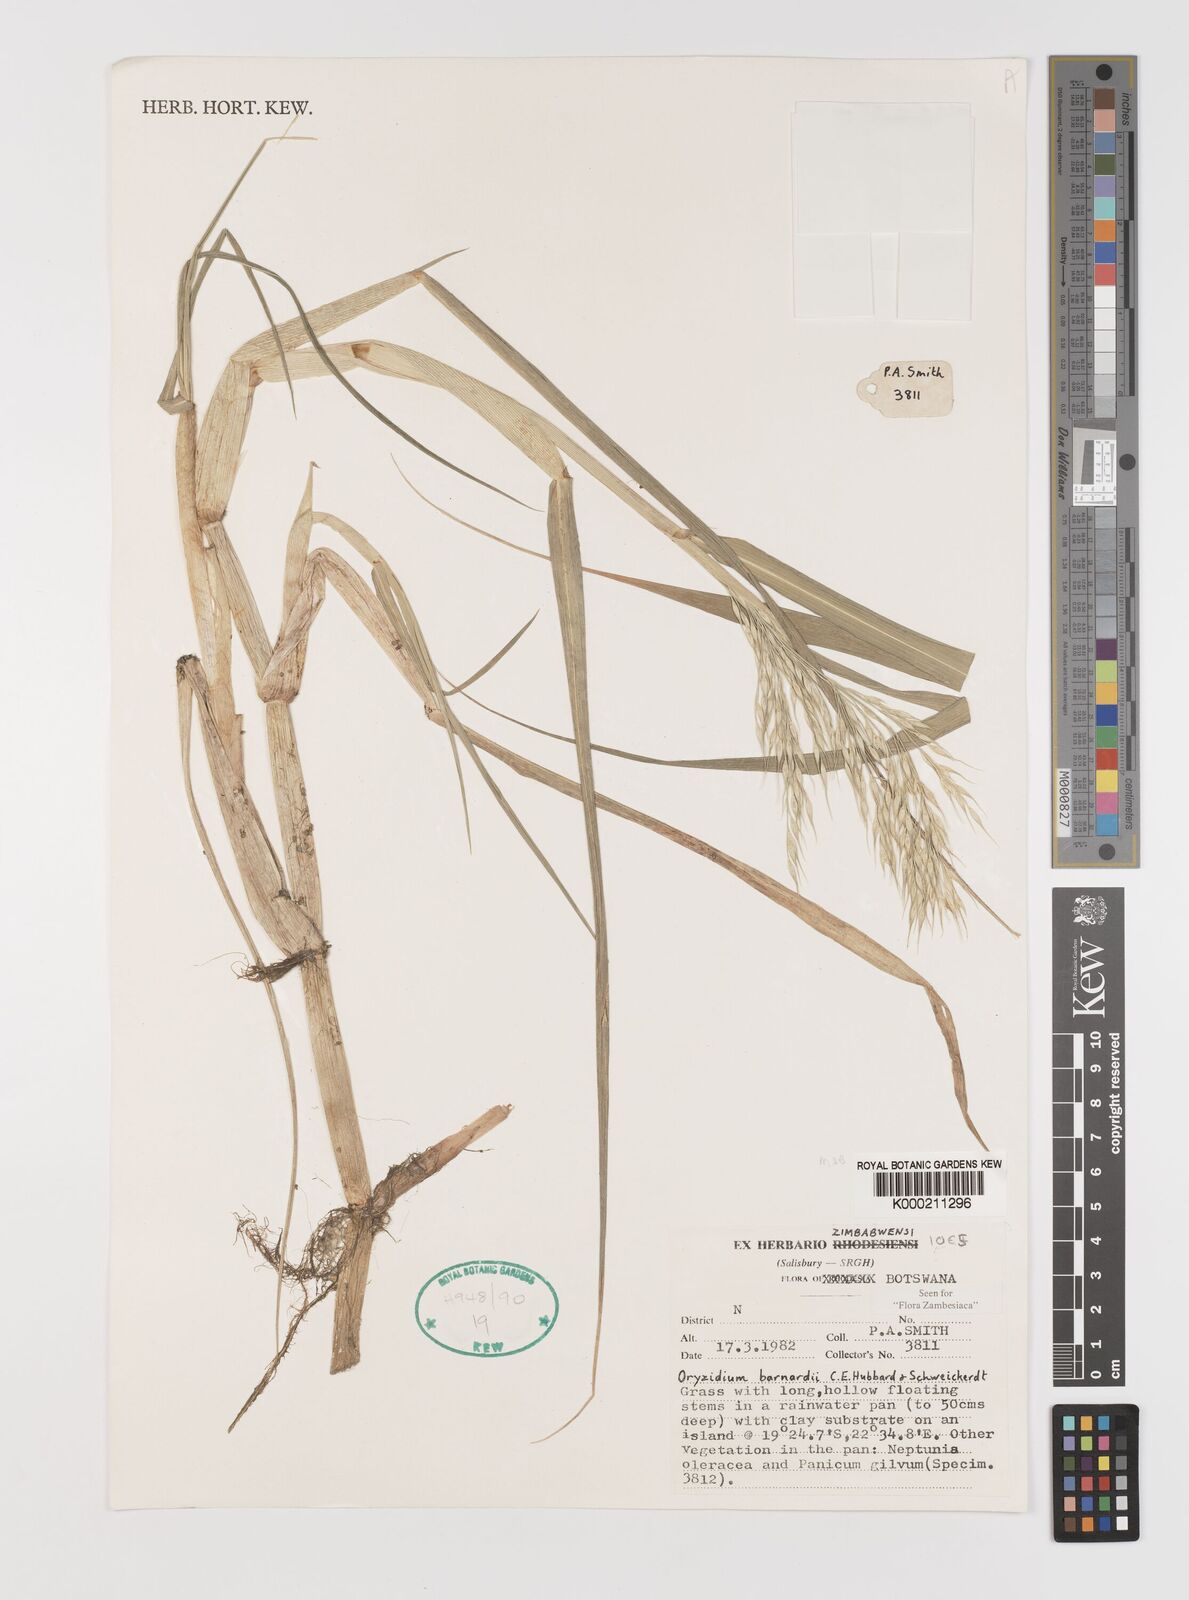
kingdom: Plantae
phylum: Tracheophyta
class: Liliopsida
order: Poales
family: Poaceae
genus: Oryzidium
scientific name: Oryzidium barnardii
